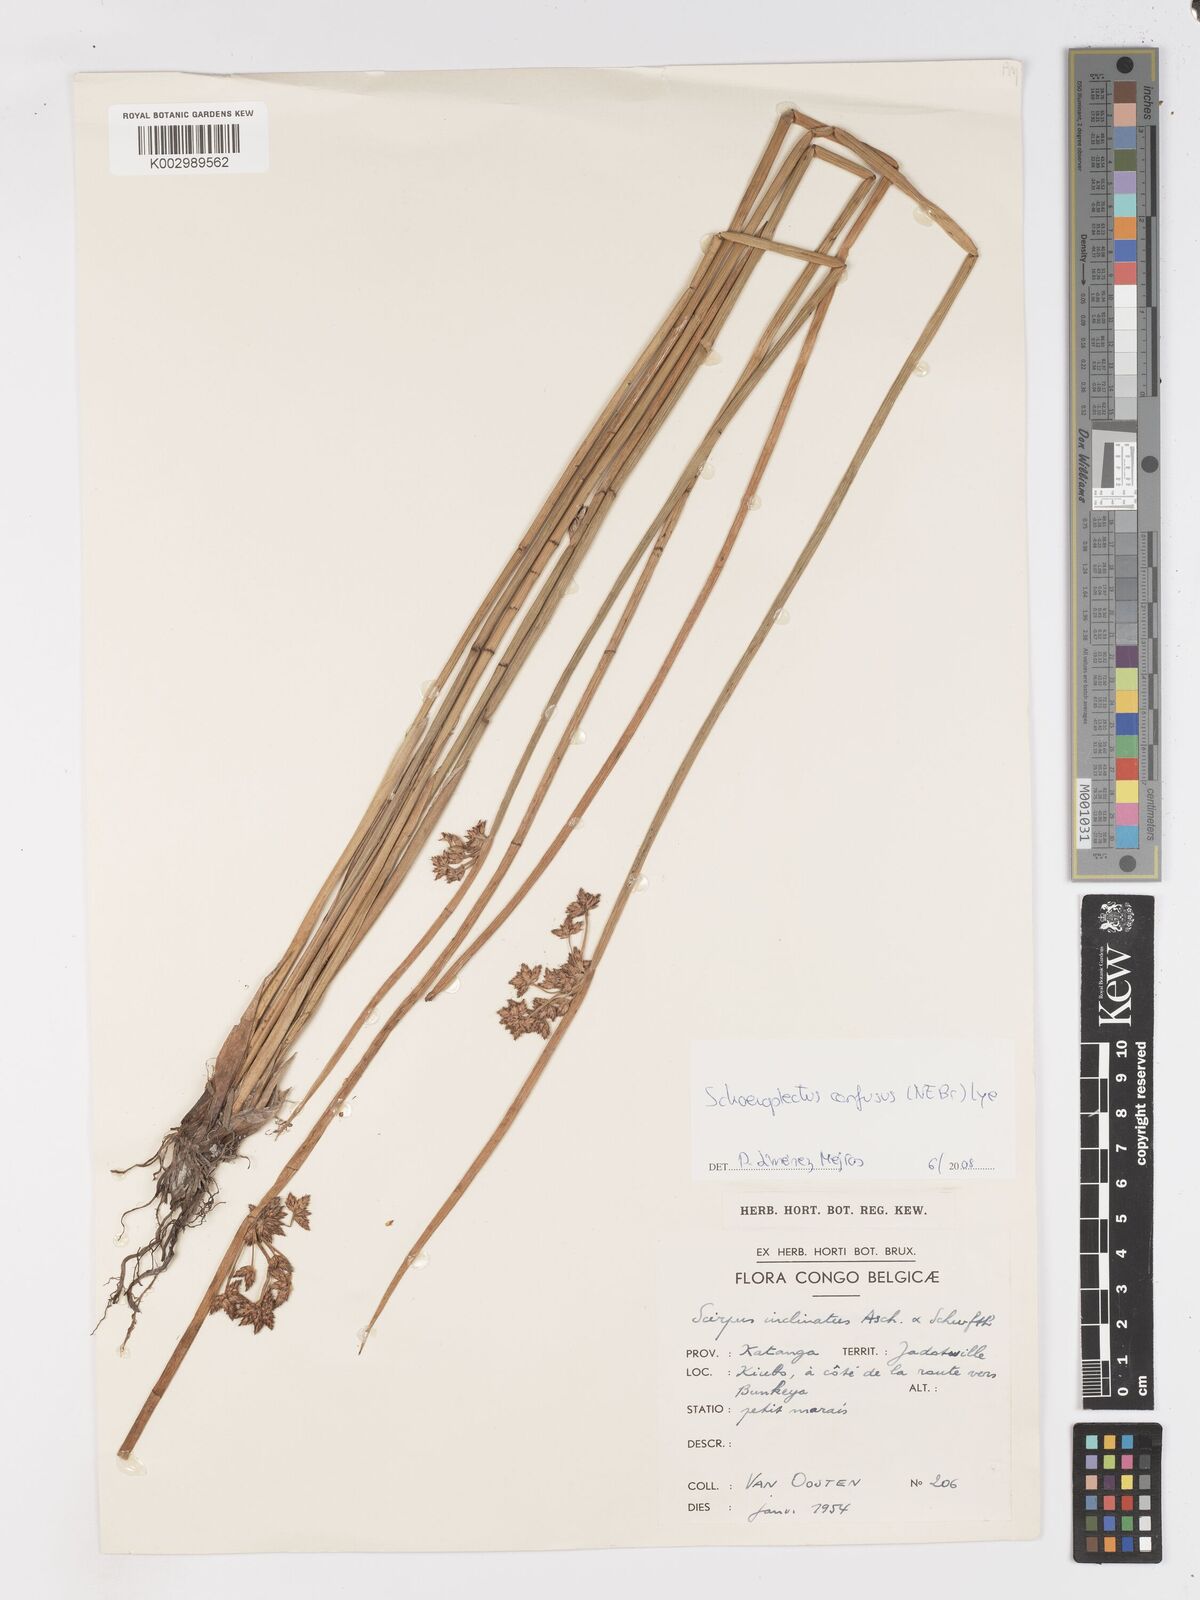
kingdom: Plantae
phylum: Tracheophyta
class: Liliopsida
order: Poales
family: Cyperaceae
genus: Schoenoplectiella
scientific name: Schoenoplectiella corymbosa
